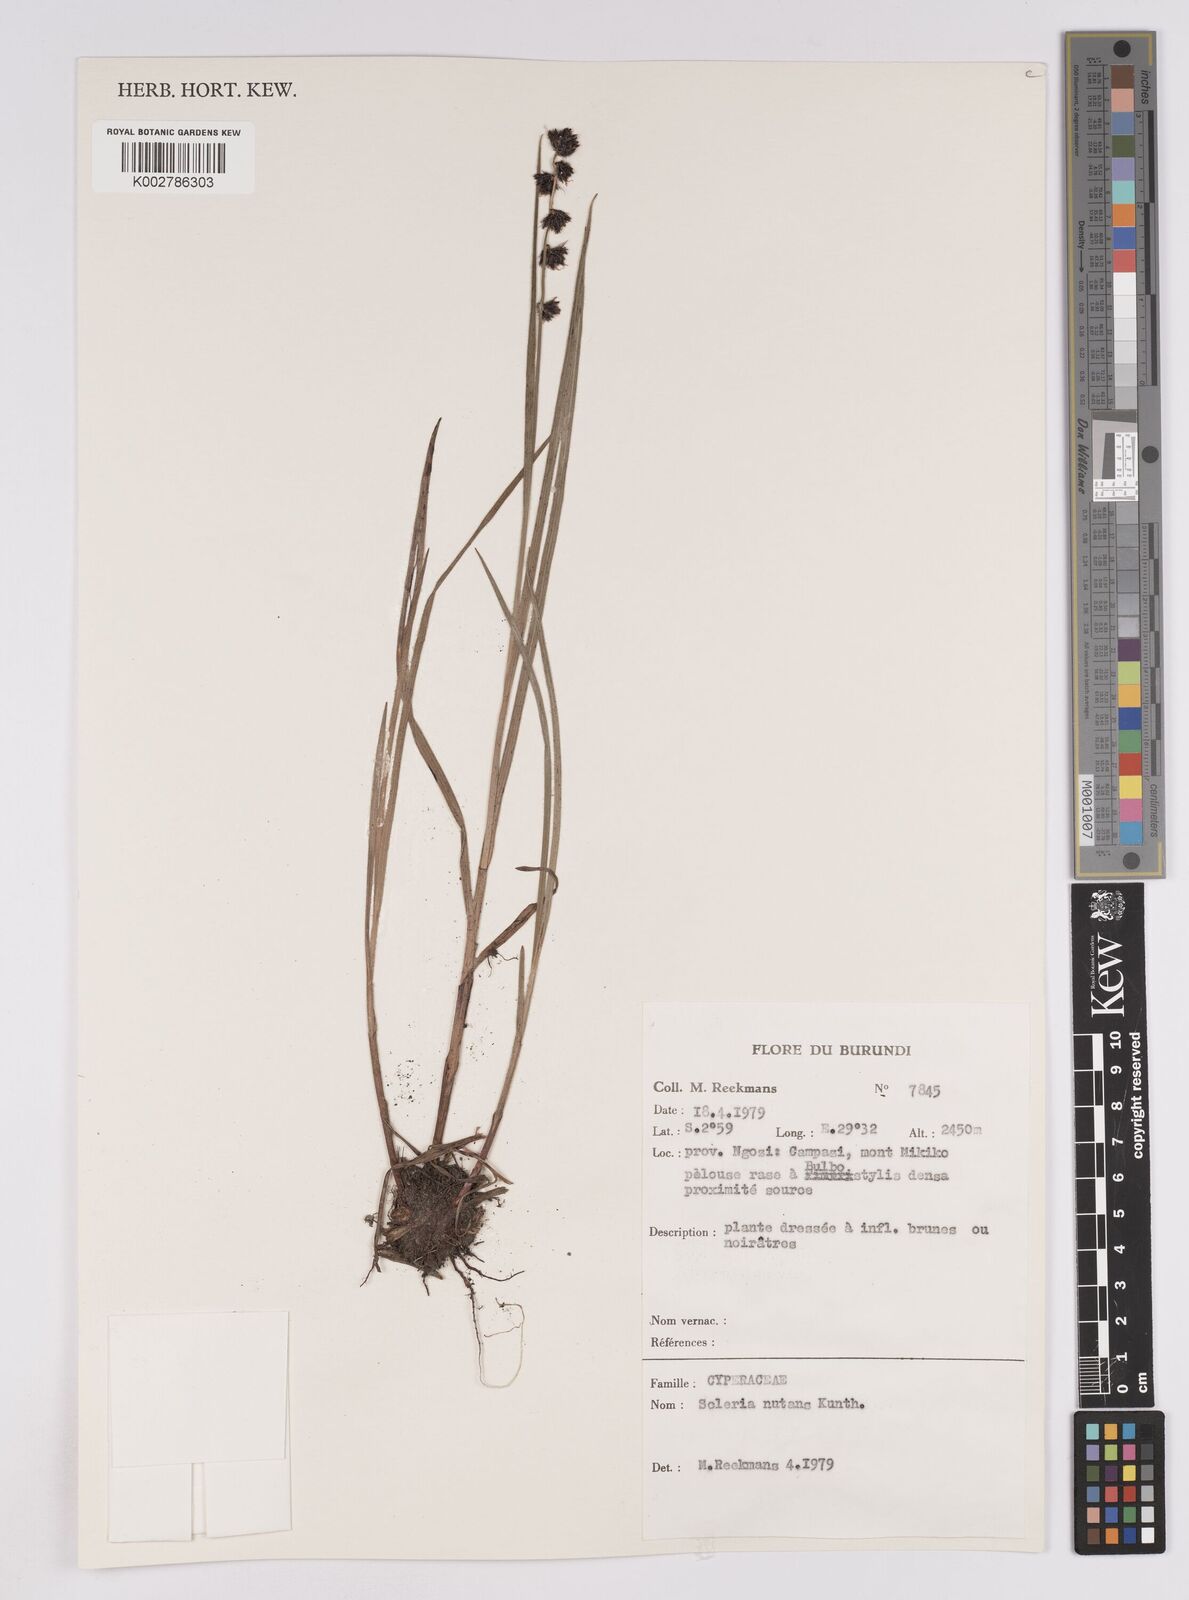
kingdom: Plantae
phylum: Tracheophyta
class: Liliopsida
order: Poales
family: Cyperaceae
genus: Scleria
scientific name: Scleria brownii
